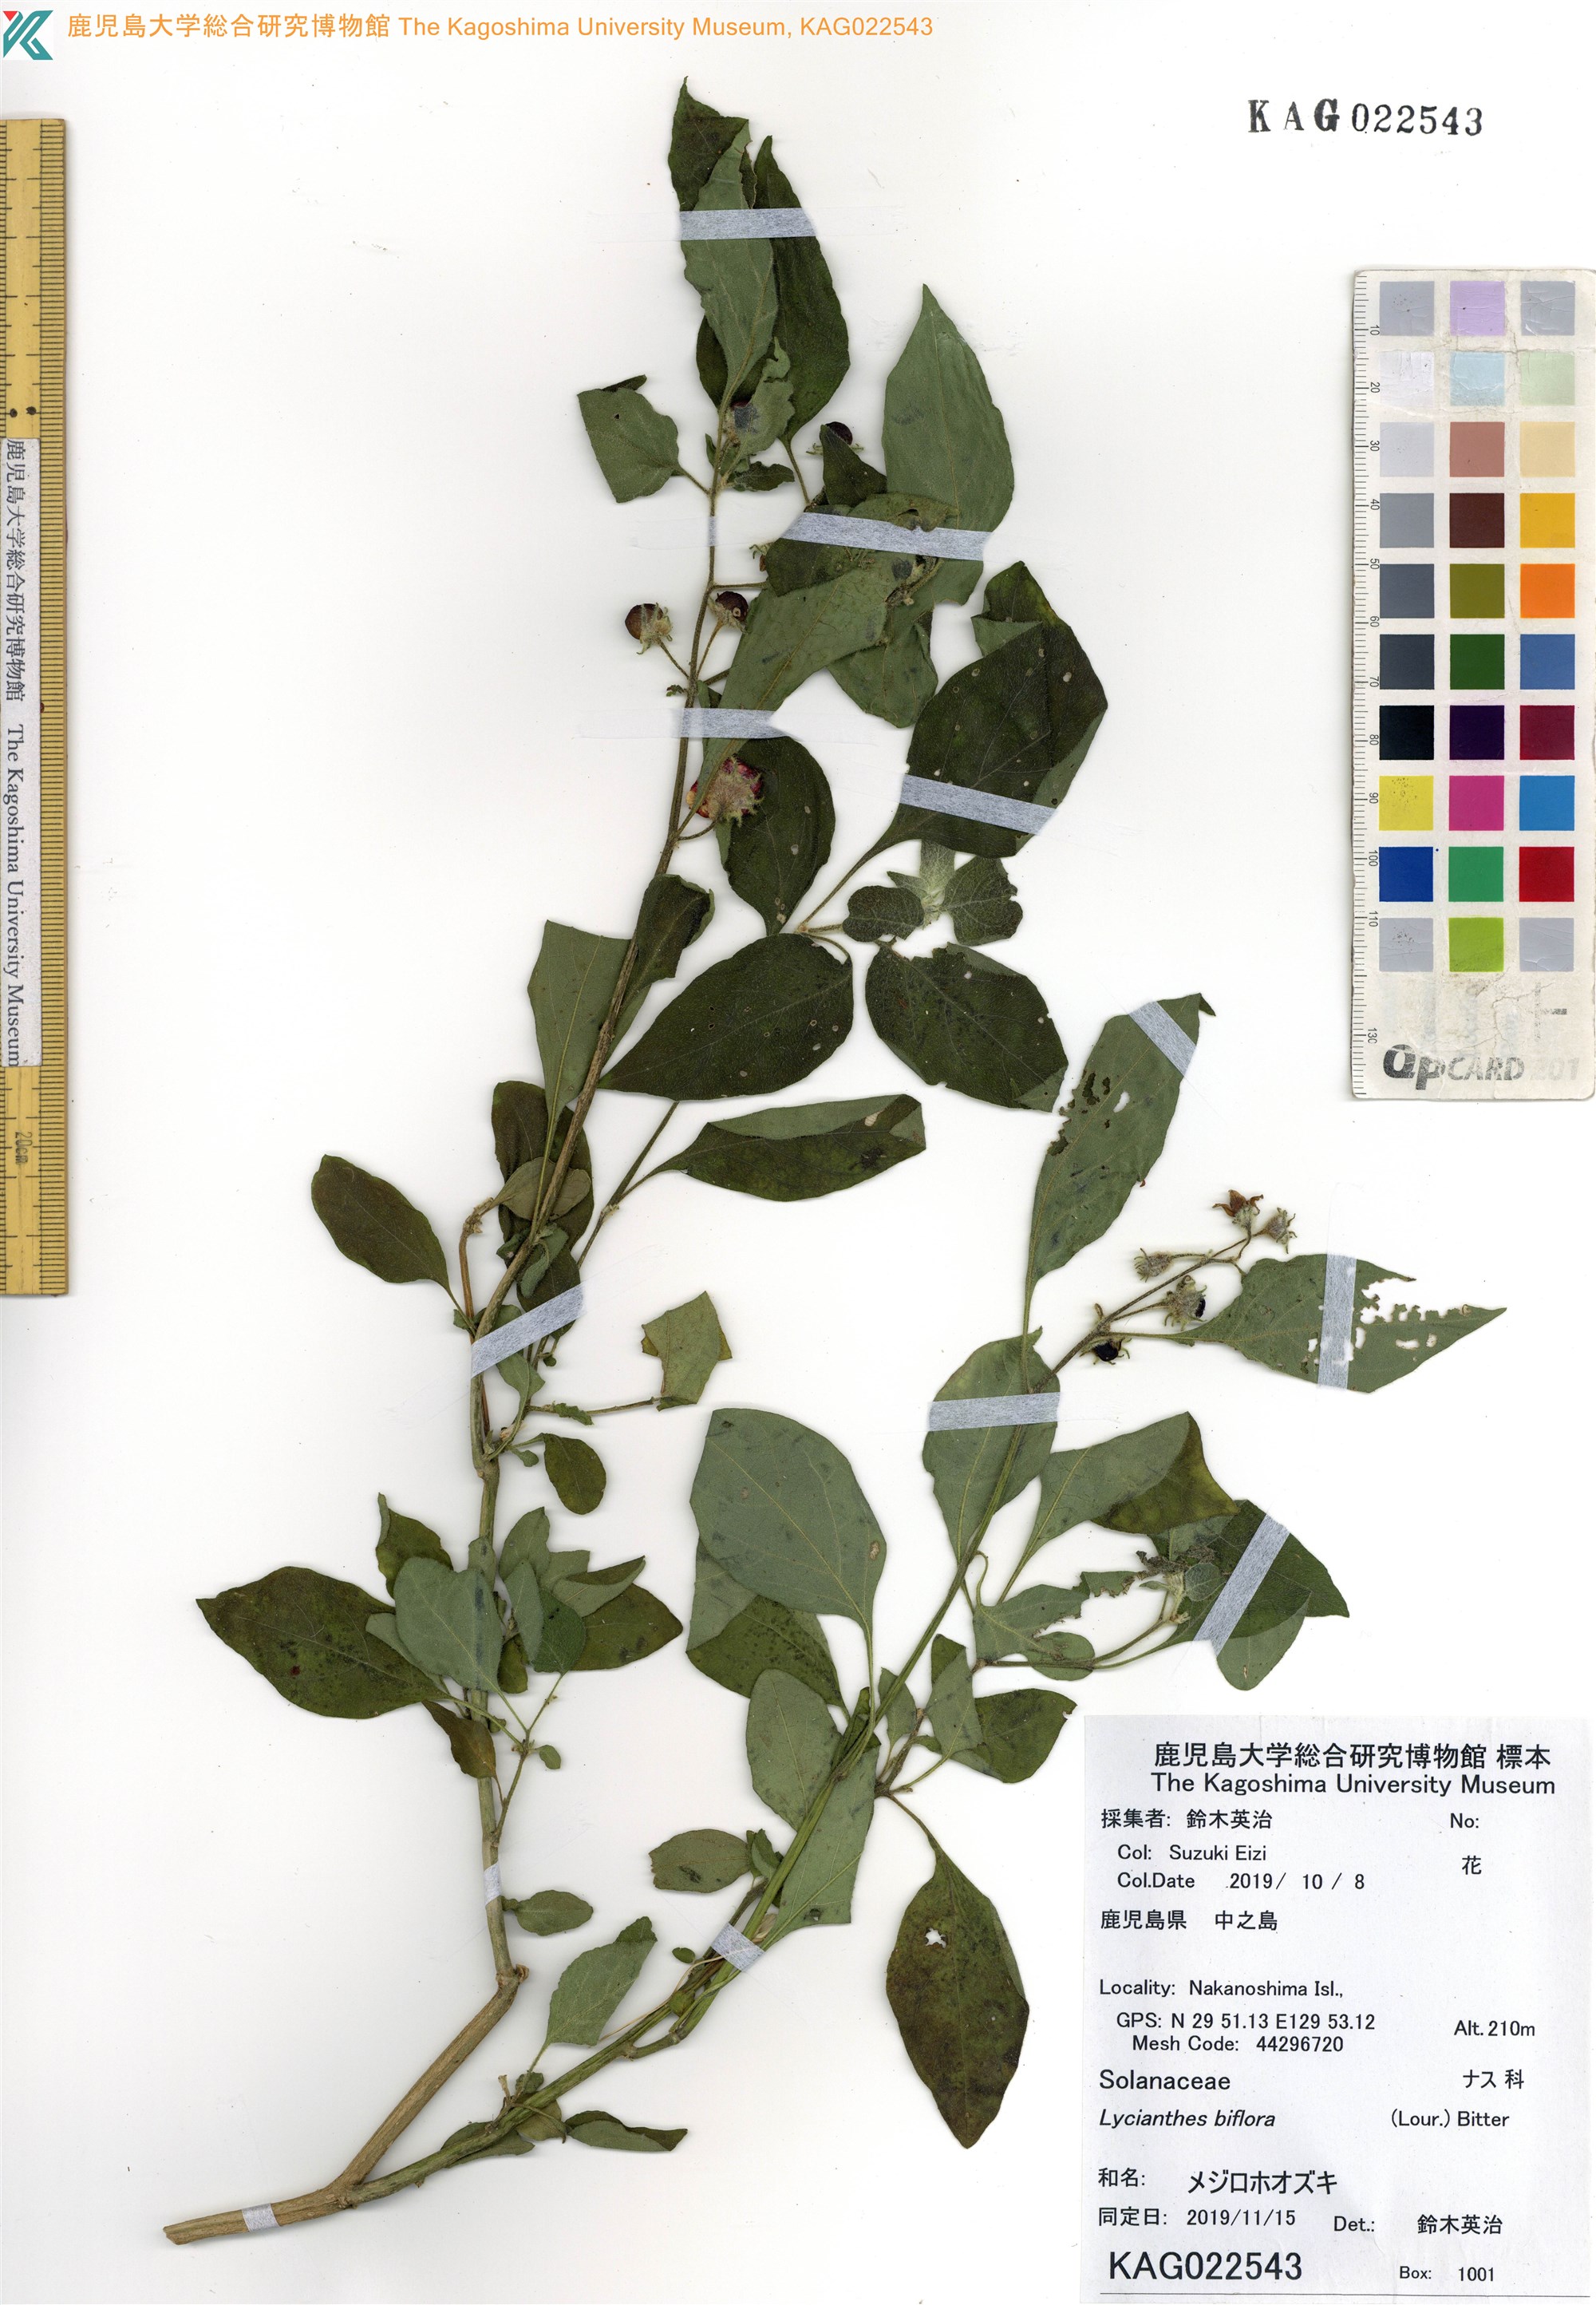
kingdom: Plantae
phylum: Tracheophyta
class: Magnoliopsida
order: Solanales
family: Solanaceae
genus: Lycianthes
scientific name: Lycianthes biflora
